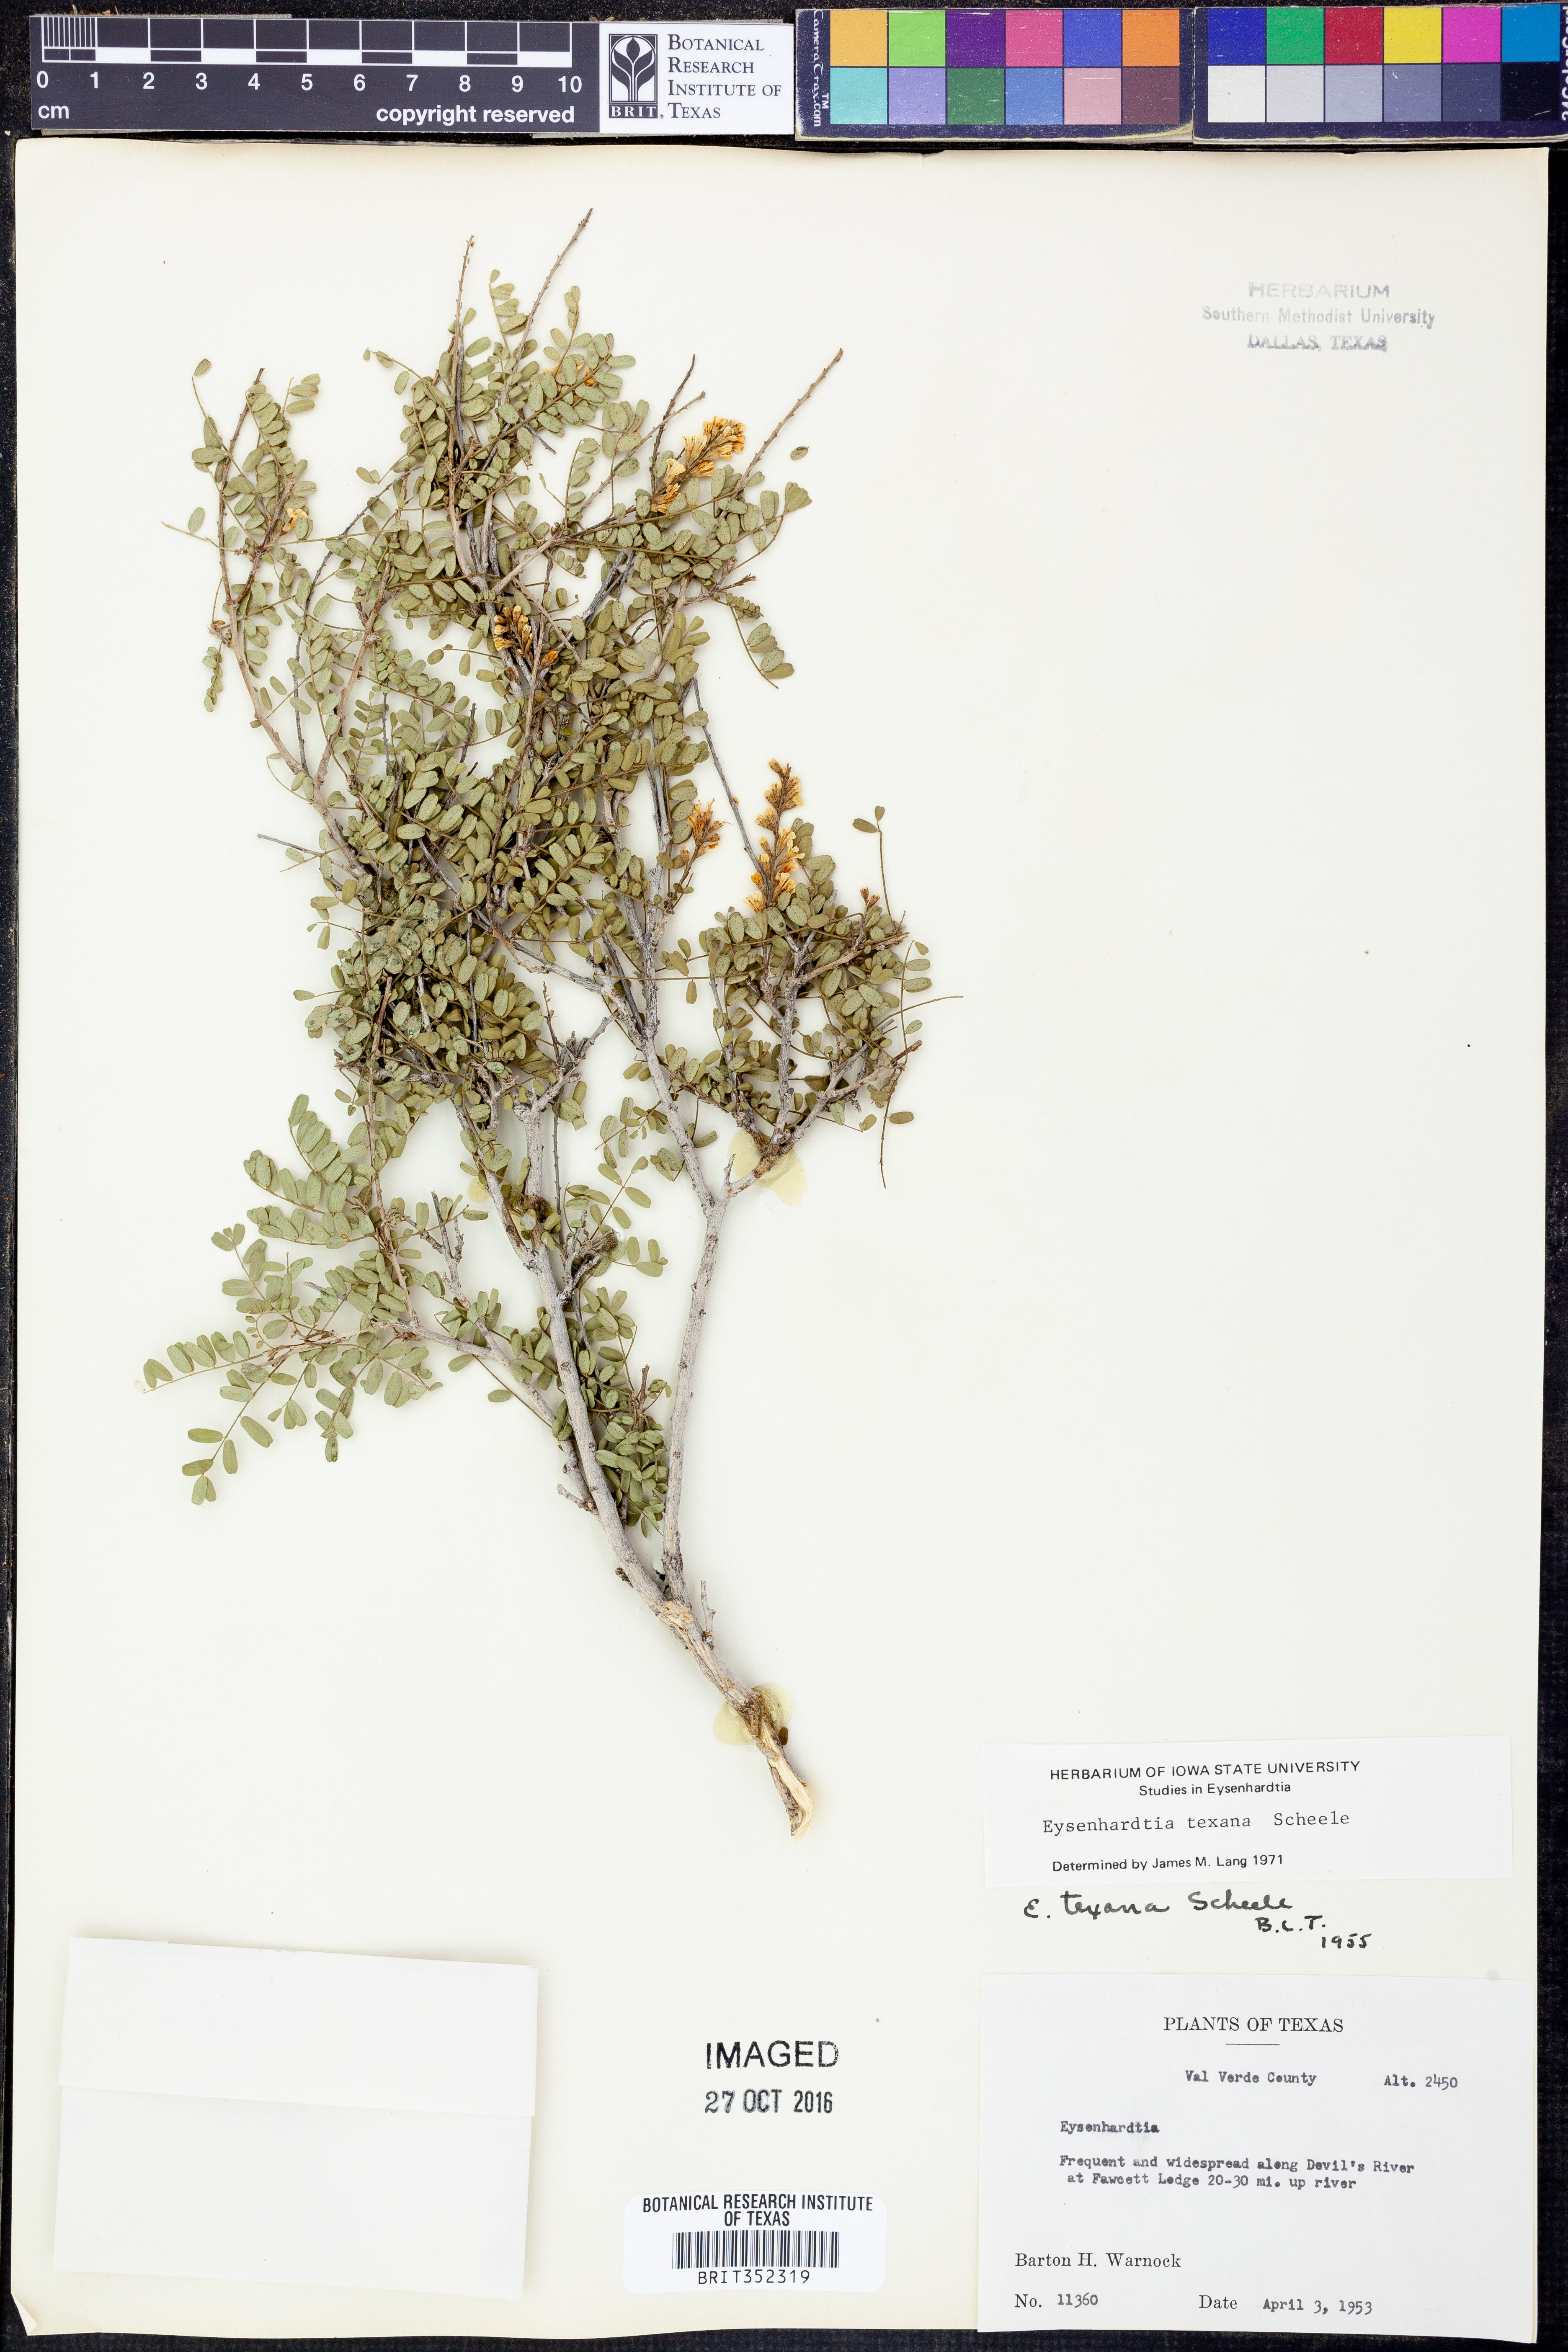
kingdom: Plantae
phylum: Tracheophyta
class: Magnoliopsida
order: Fabales
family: Fabaceae
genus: Eysenhardtia
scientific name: Eysenhardtia texana
